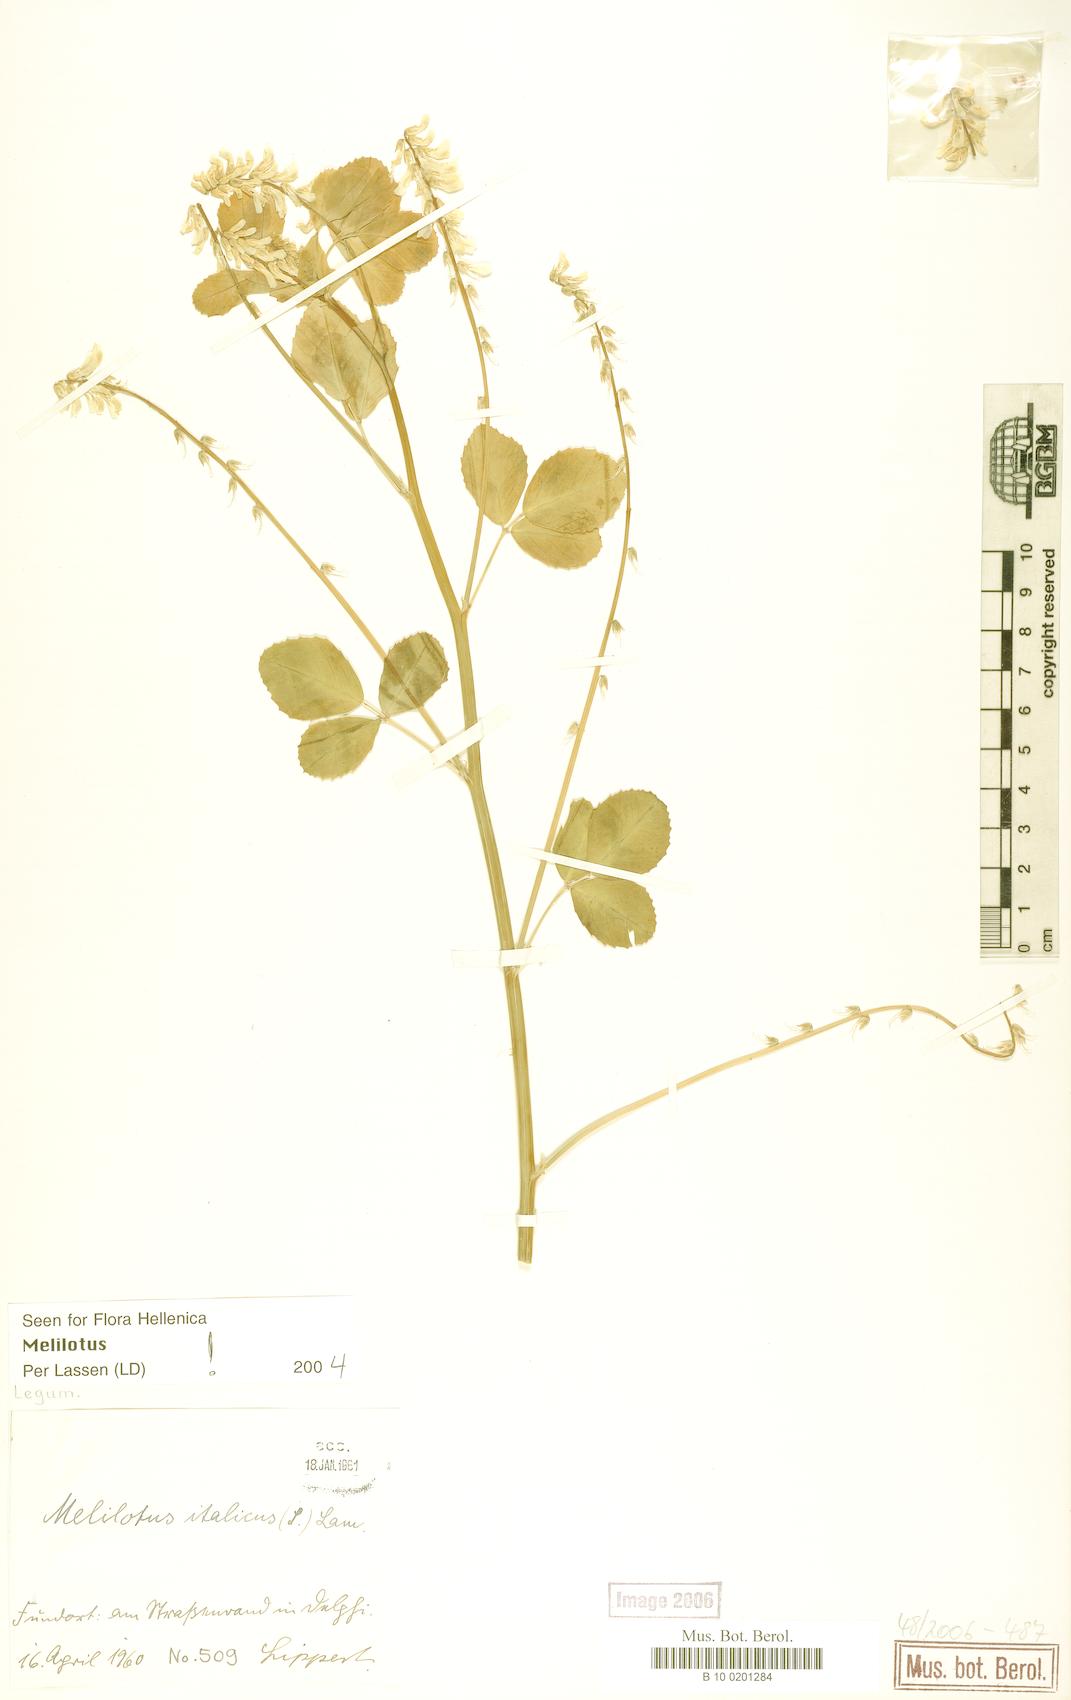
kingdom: Plantae
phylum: Tracheophyta
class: Magnoliopsida
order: Fabales
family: Fabaceae
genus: Melilotus
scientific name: Melilotus italicus
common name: Italian melilot
